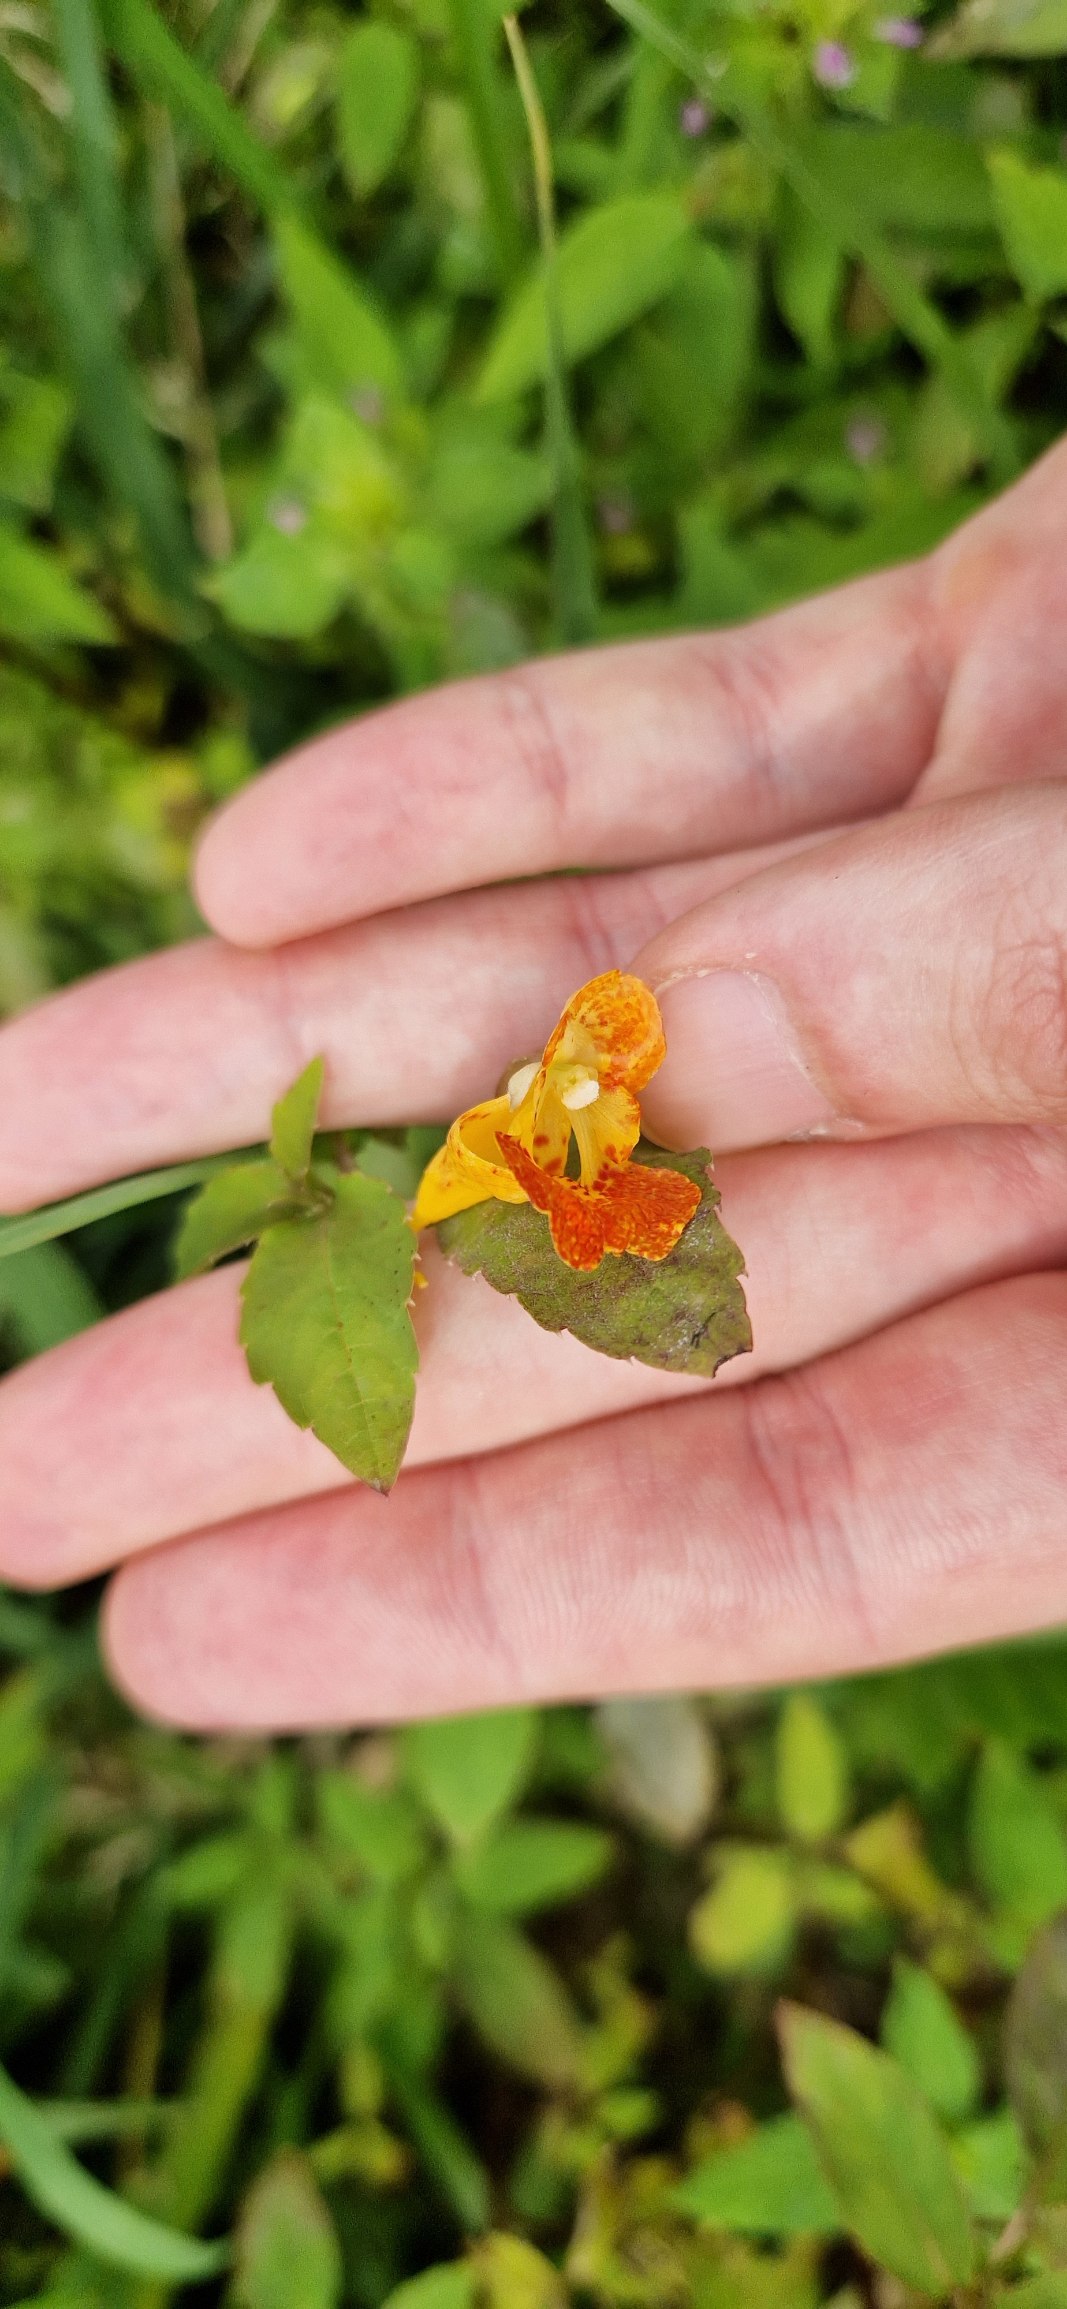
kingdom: Plantae
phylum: Tracheophyta
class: Magnoliopsida
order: Ericales
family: Balsaminaceae
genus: Impatiens
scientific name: Impatiens capensis
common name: Orange-balsamin
